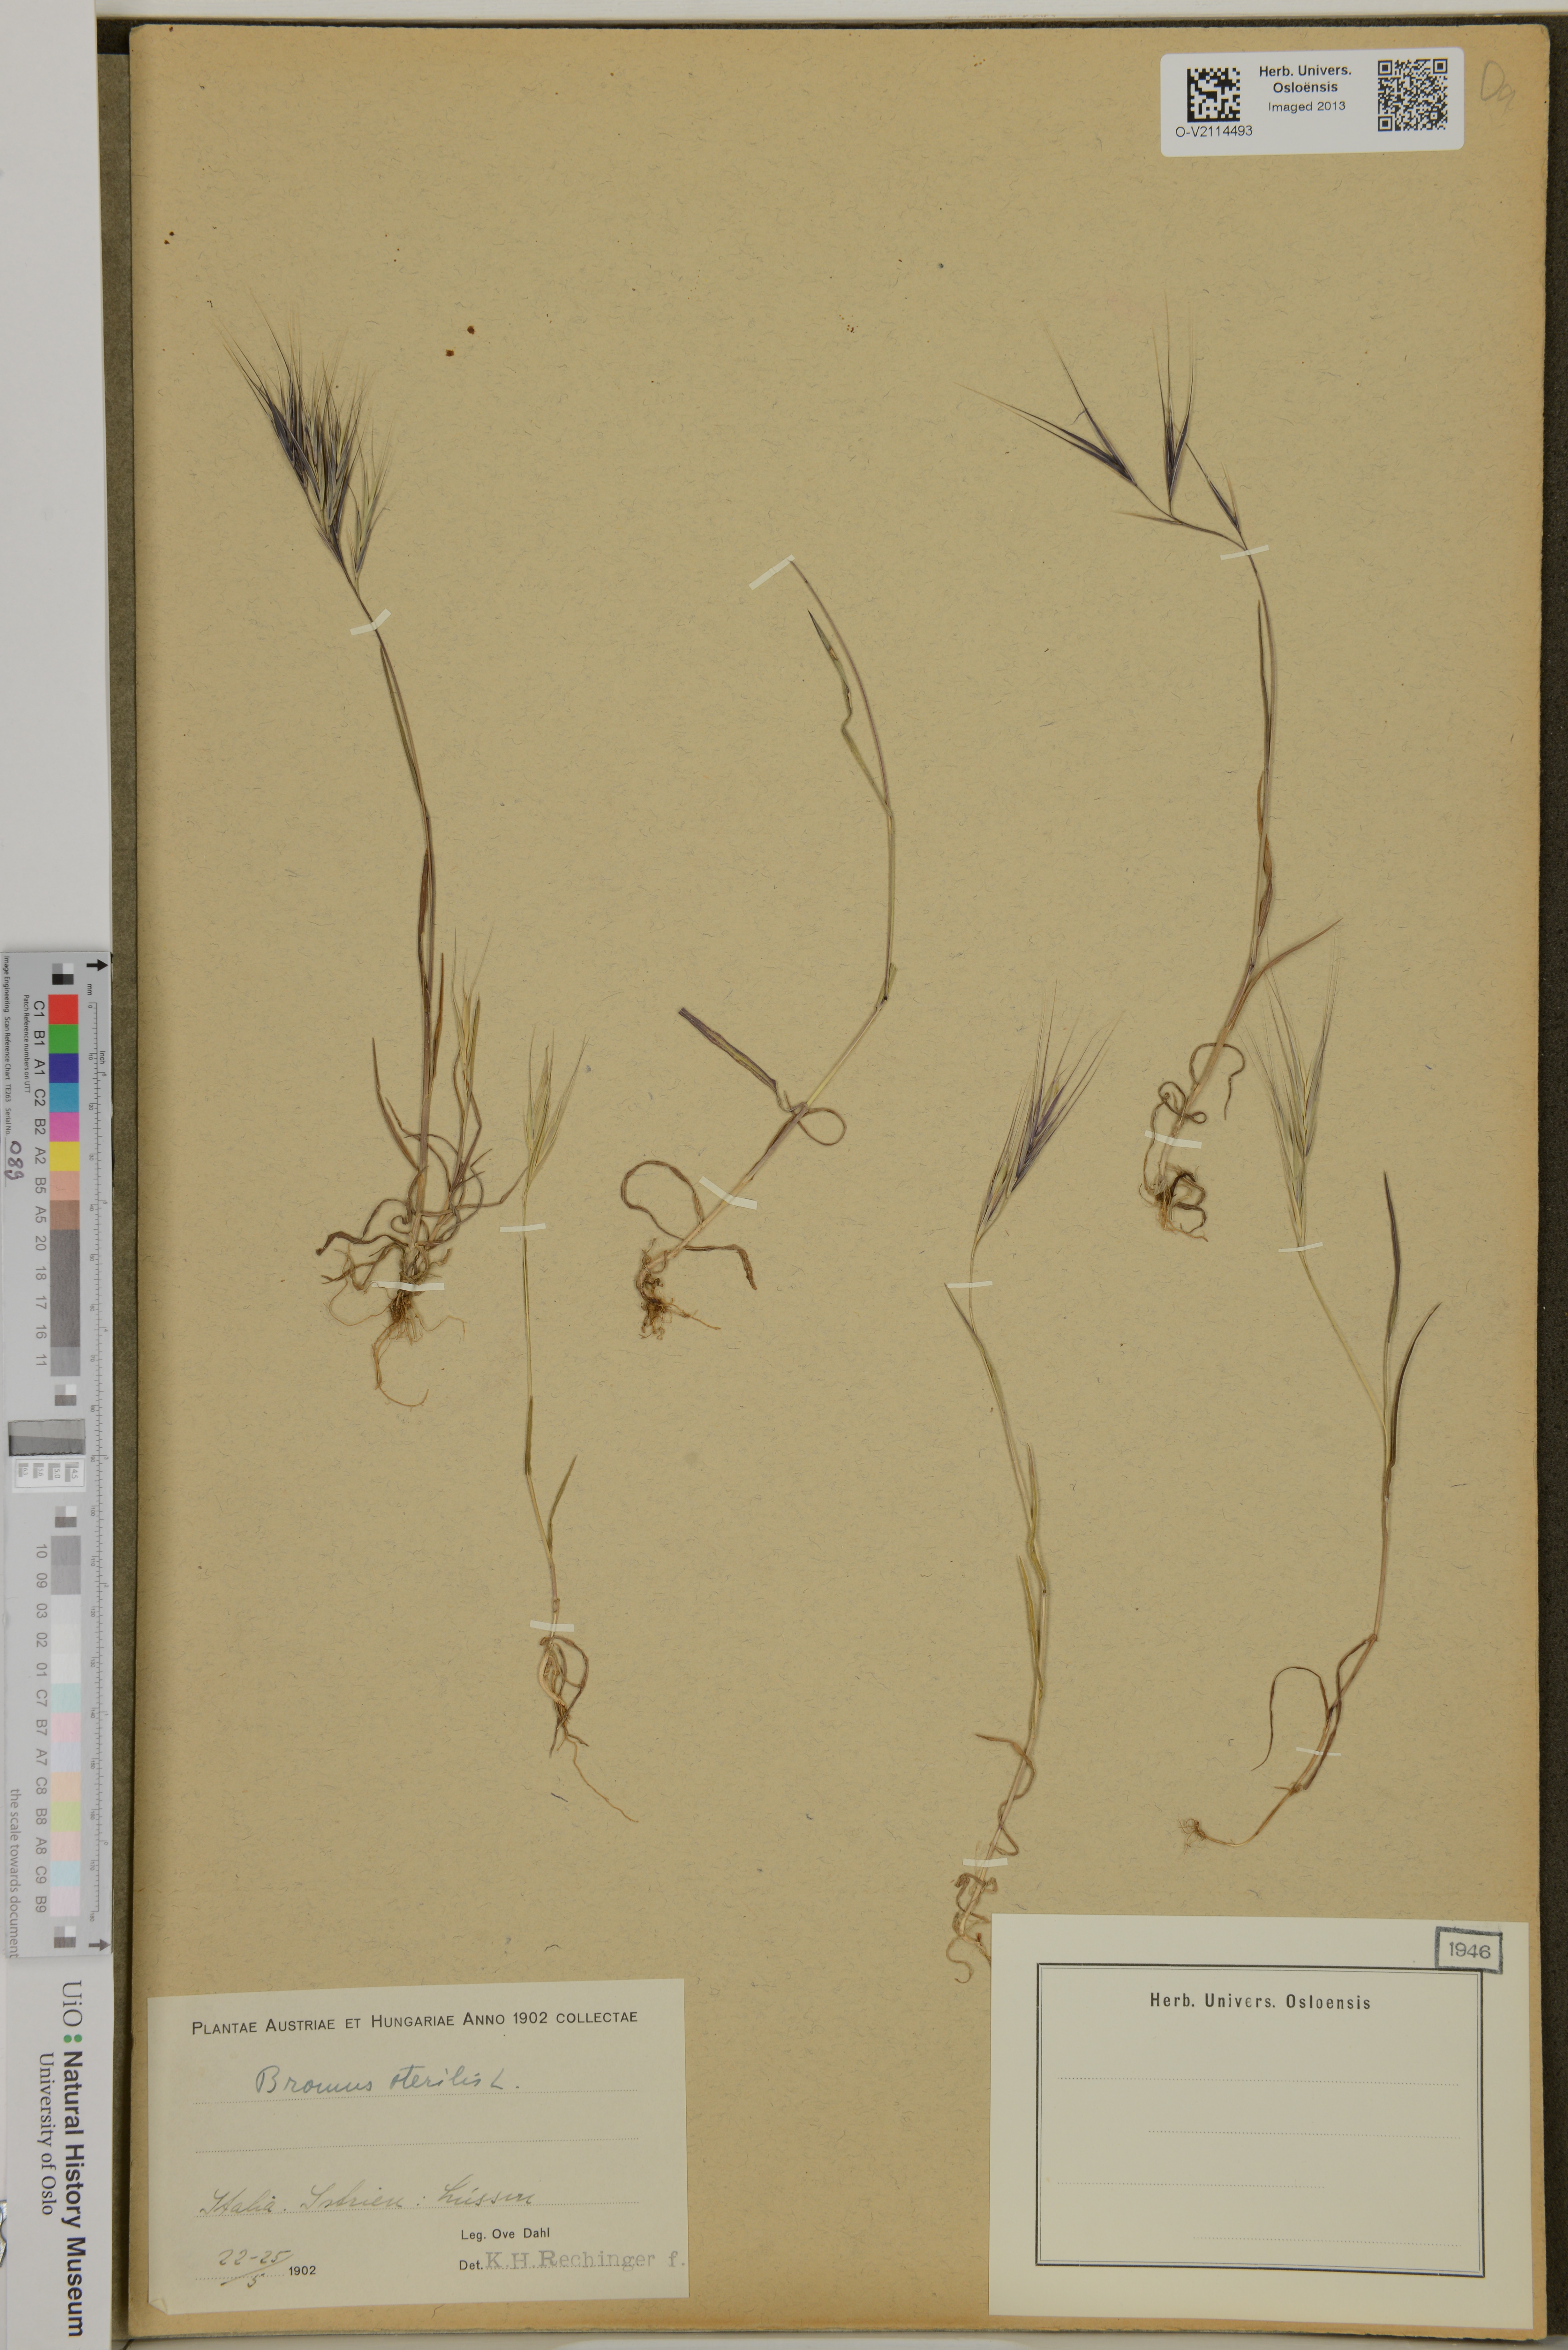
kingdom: Plantae
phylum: Tracheophyta
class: Liliopsida
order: Poales
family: Poaceae
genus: Bromus
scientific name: Bromus sterilis
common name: Poverty brome
